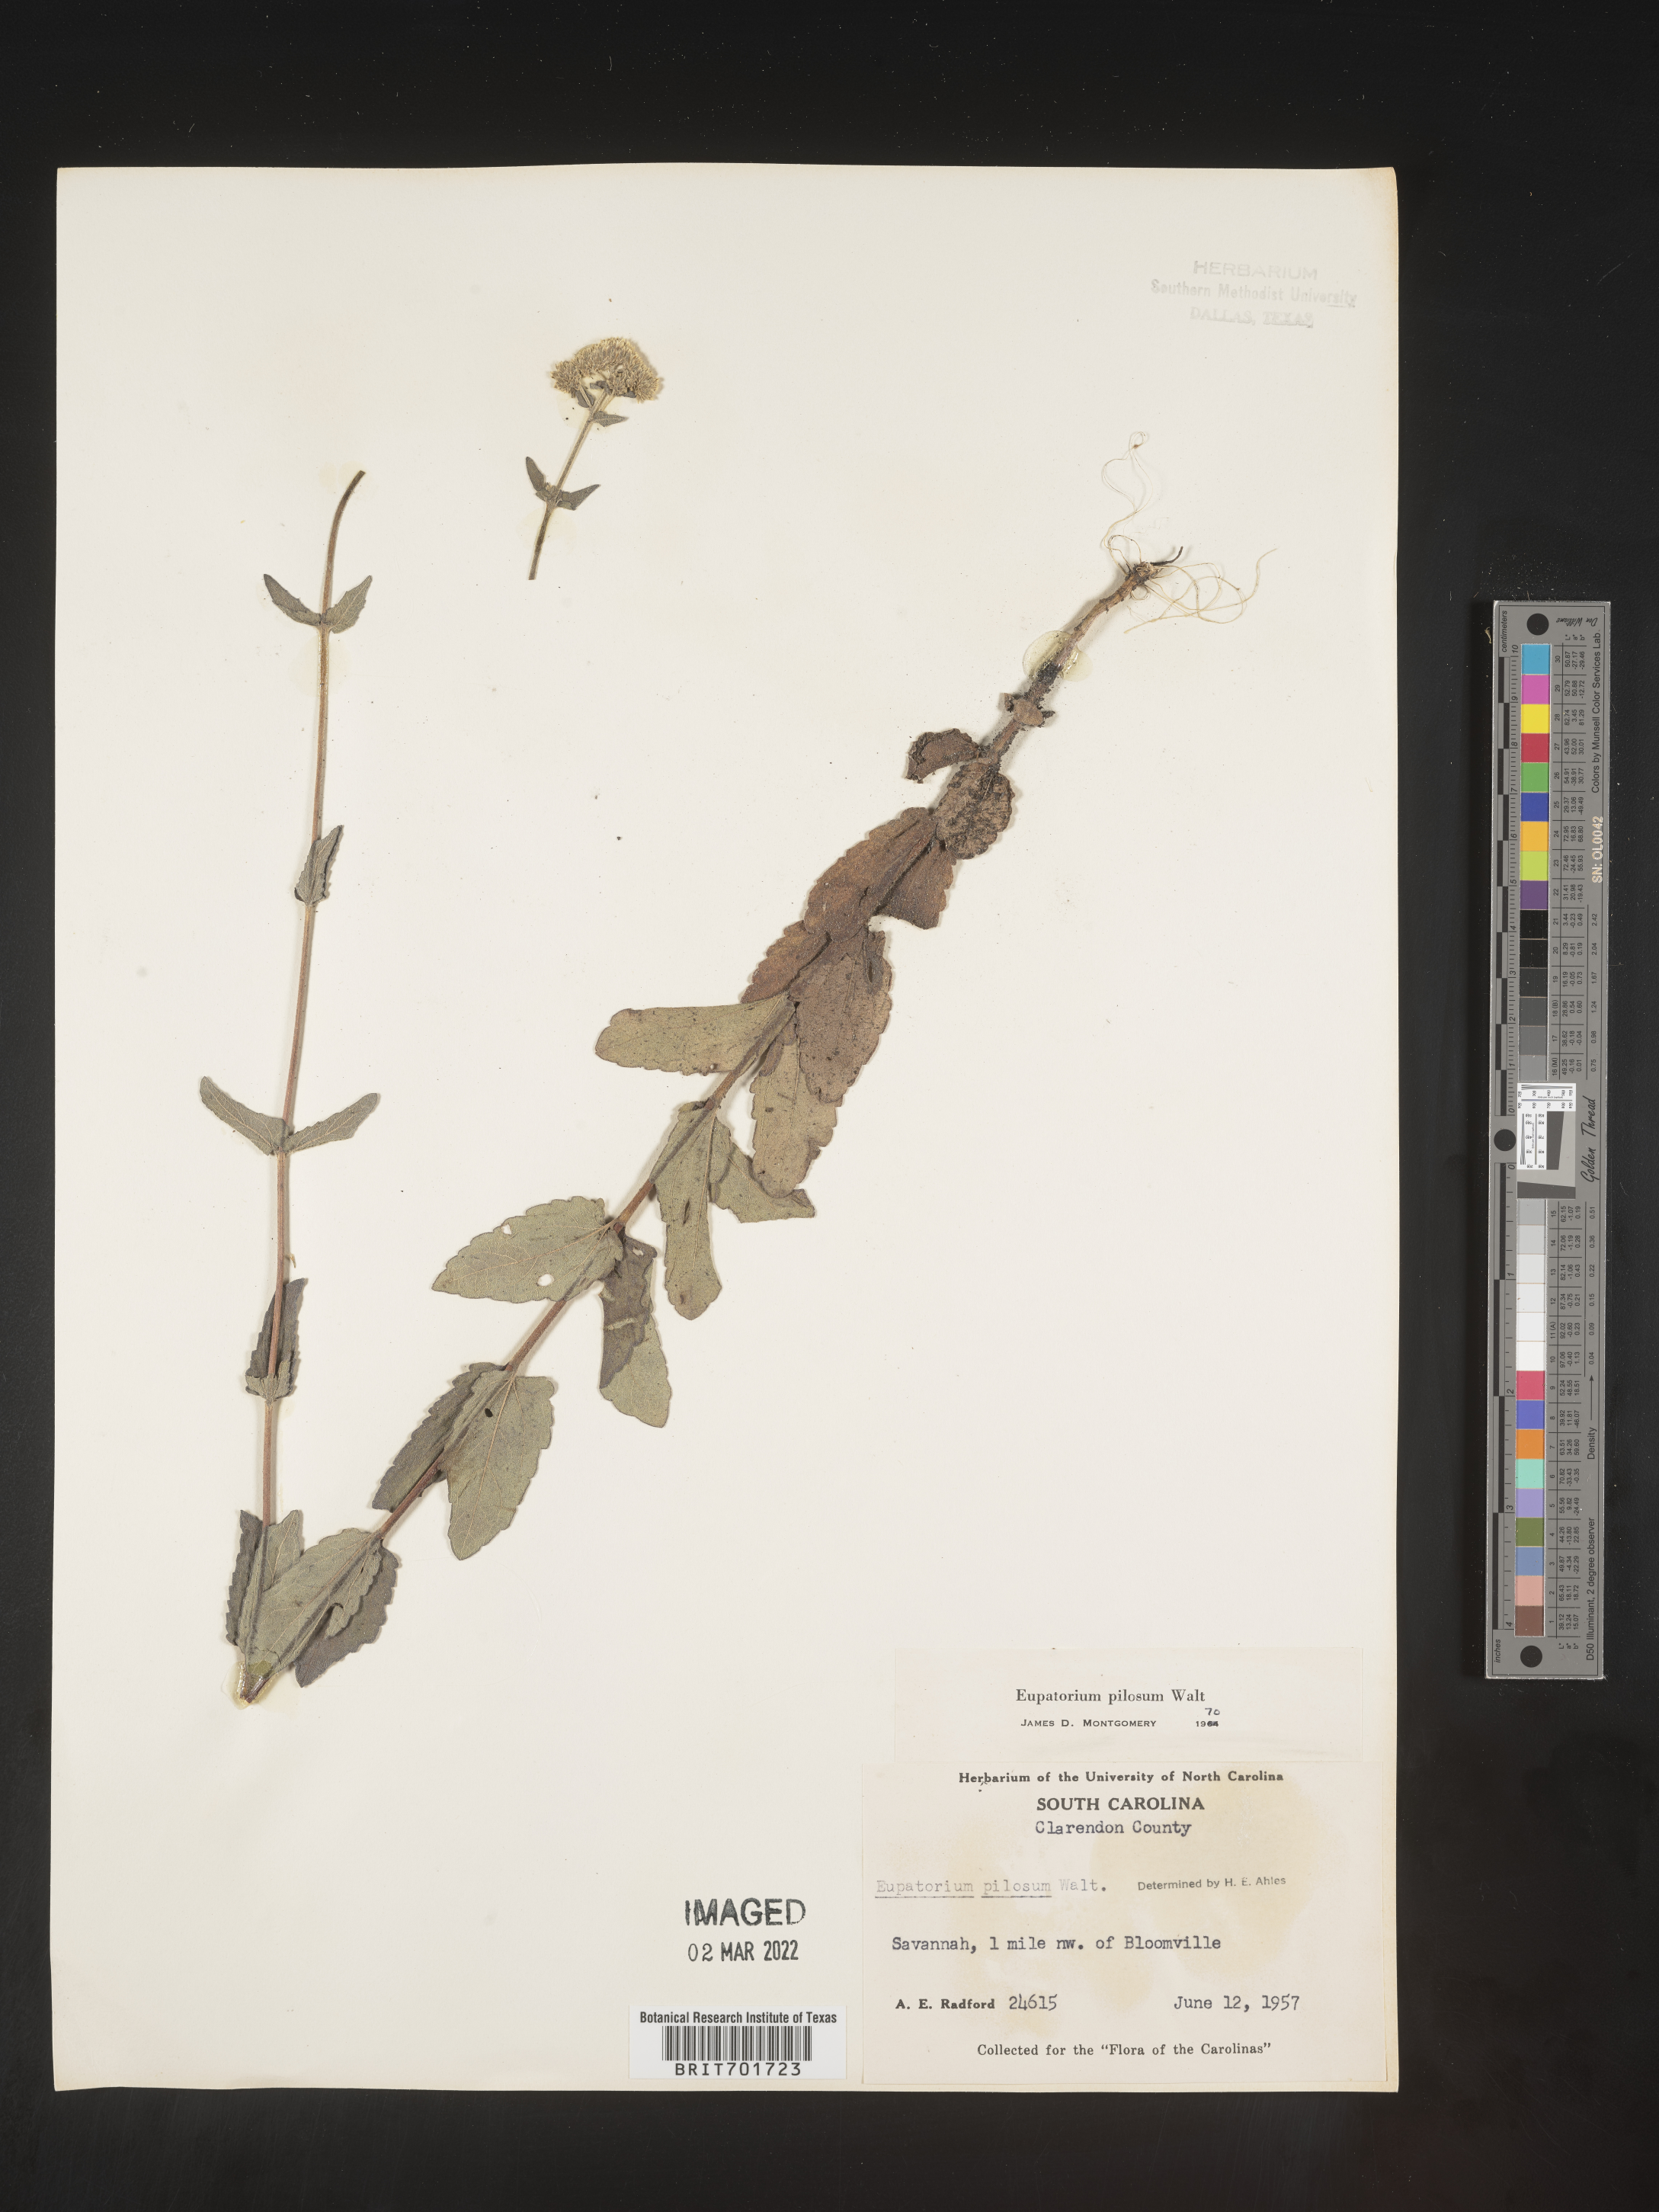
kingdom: Plantae
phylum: Tracheophyta
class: Magnoliopsida
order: Asterales
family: Asteraceae
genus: Eupatorium
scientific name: Eupatorium pilosum
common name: Rough boneset
